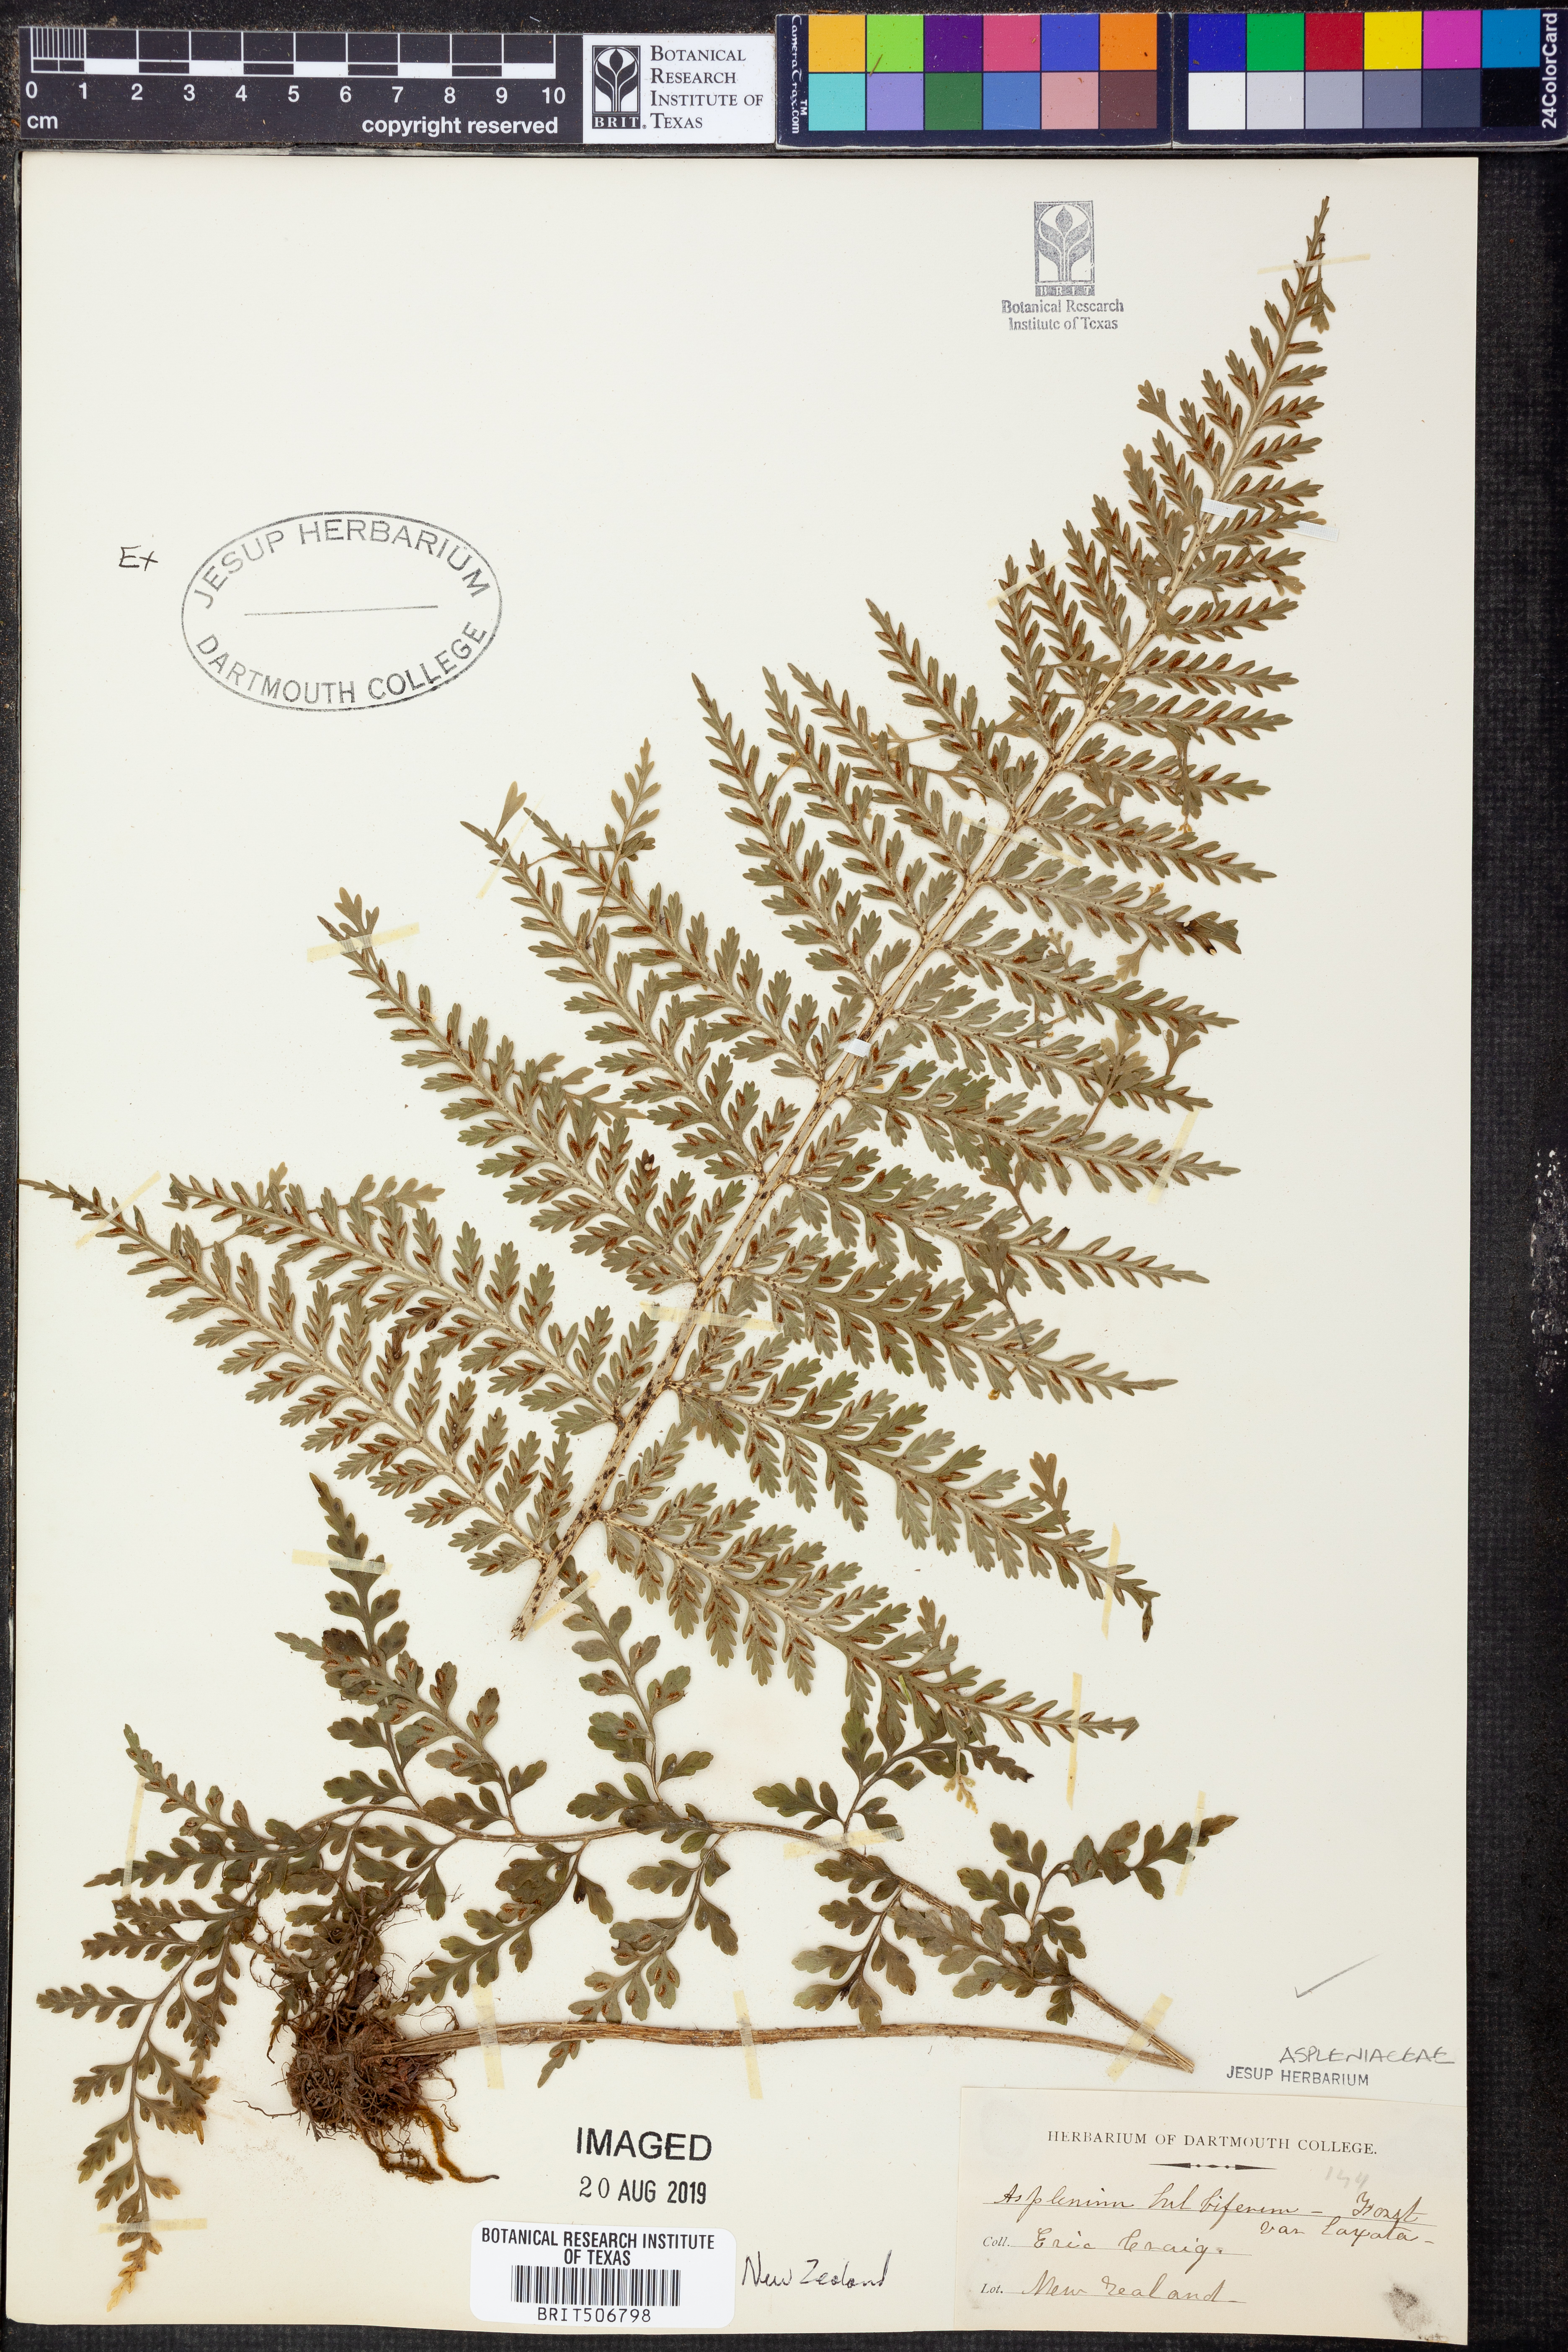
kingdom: Plantae
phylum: Tracheophyta
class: Polypodiopsida
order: Polypodiales
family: Aspleniaceae
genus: Asplenium
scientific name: Asplenium bulbiferum
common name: Mother fern
